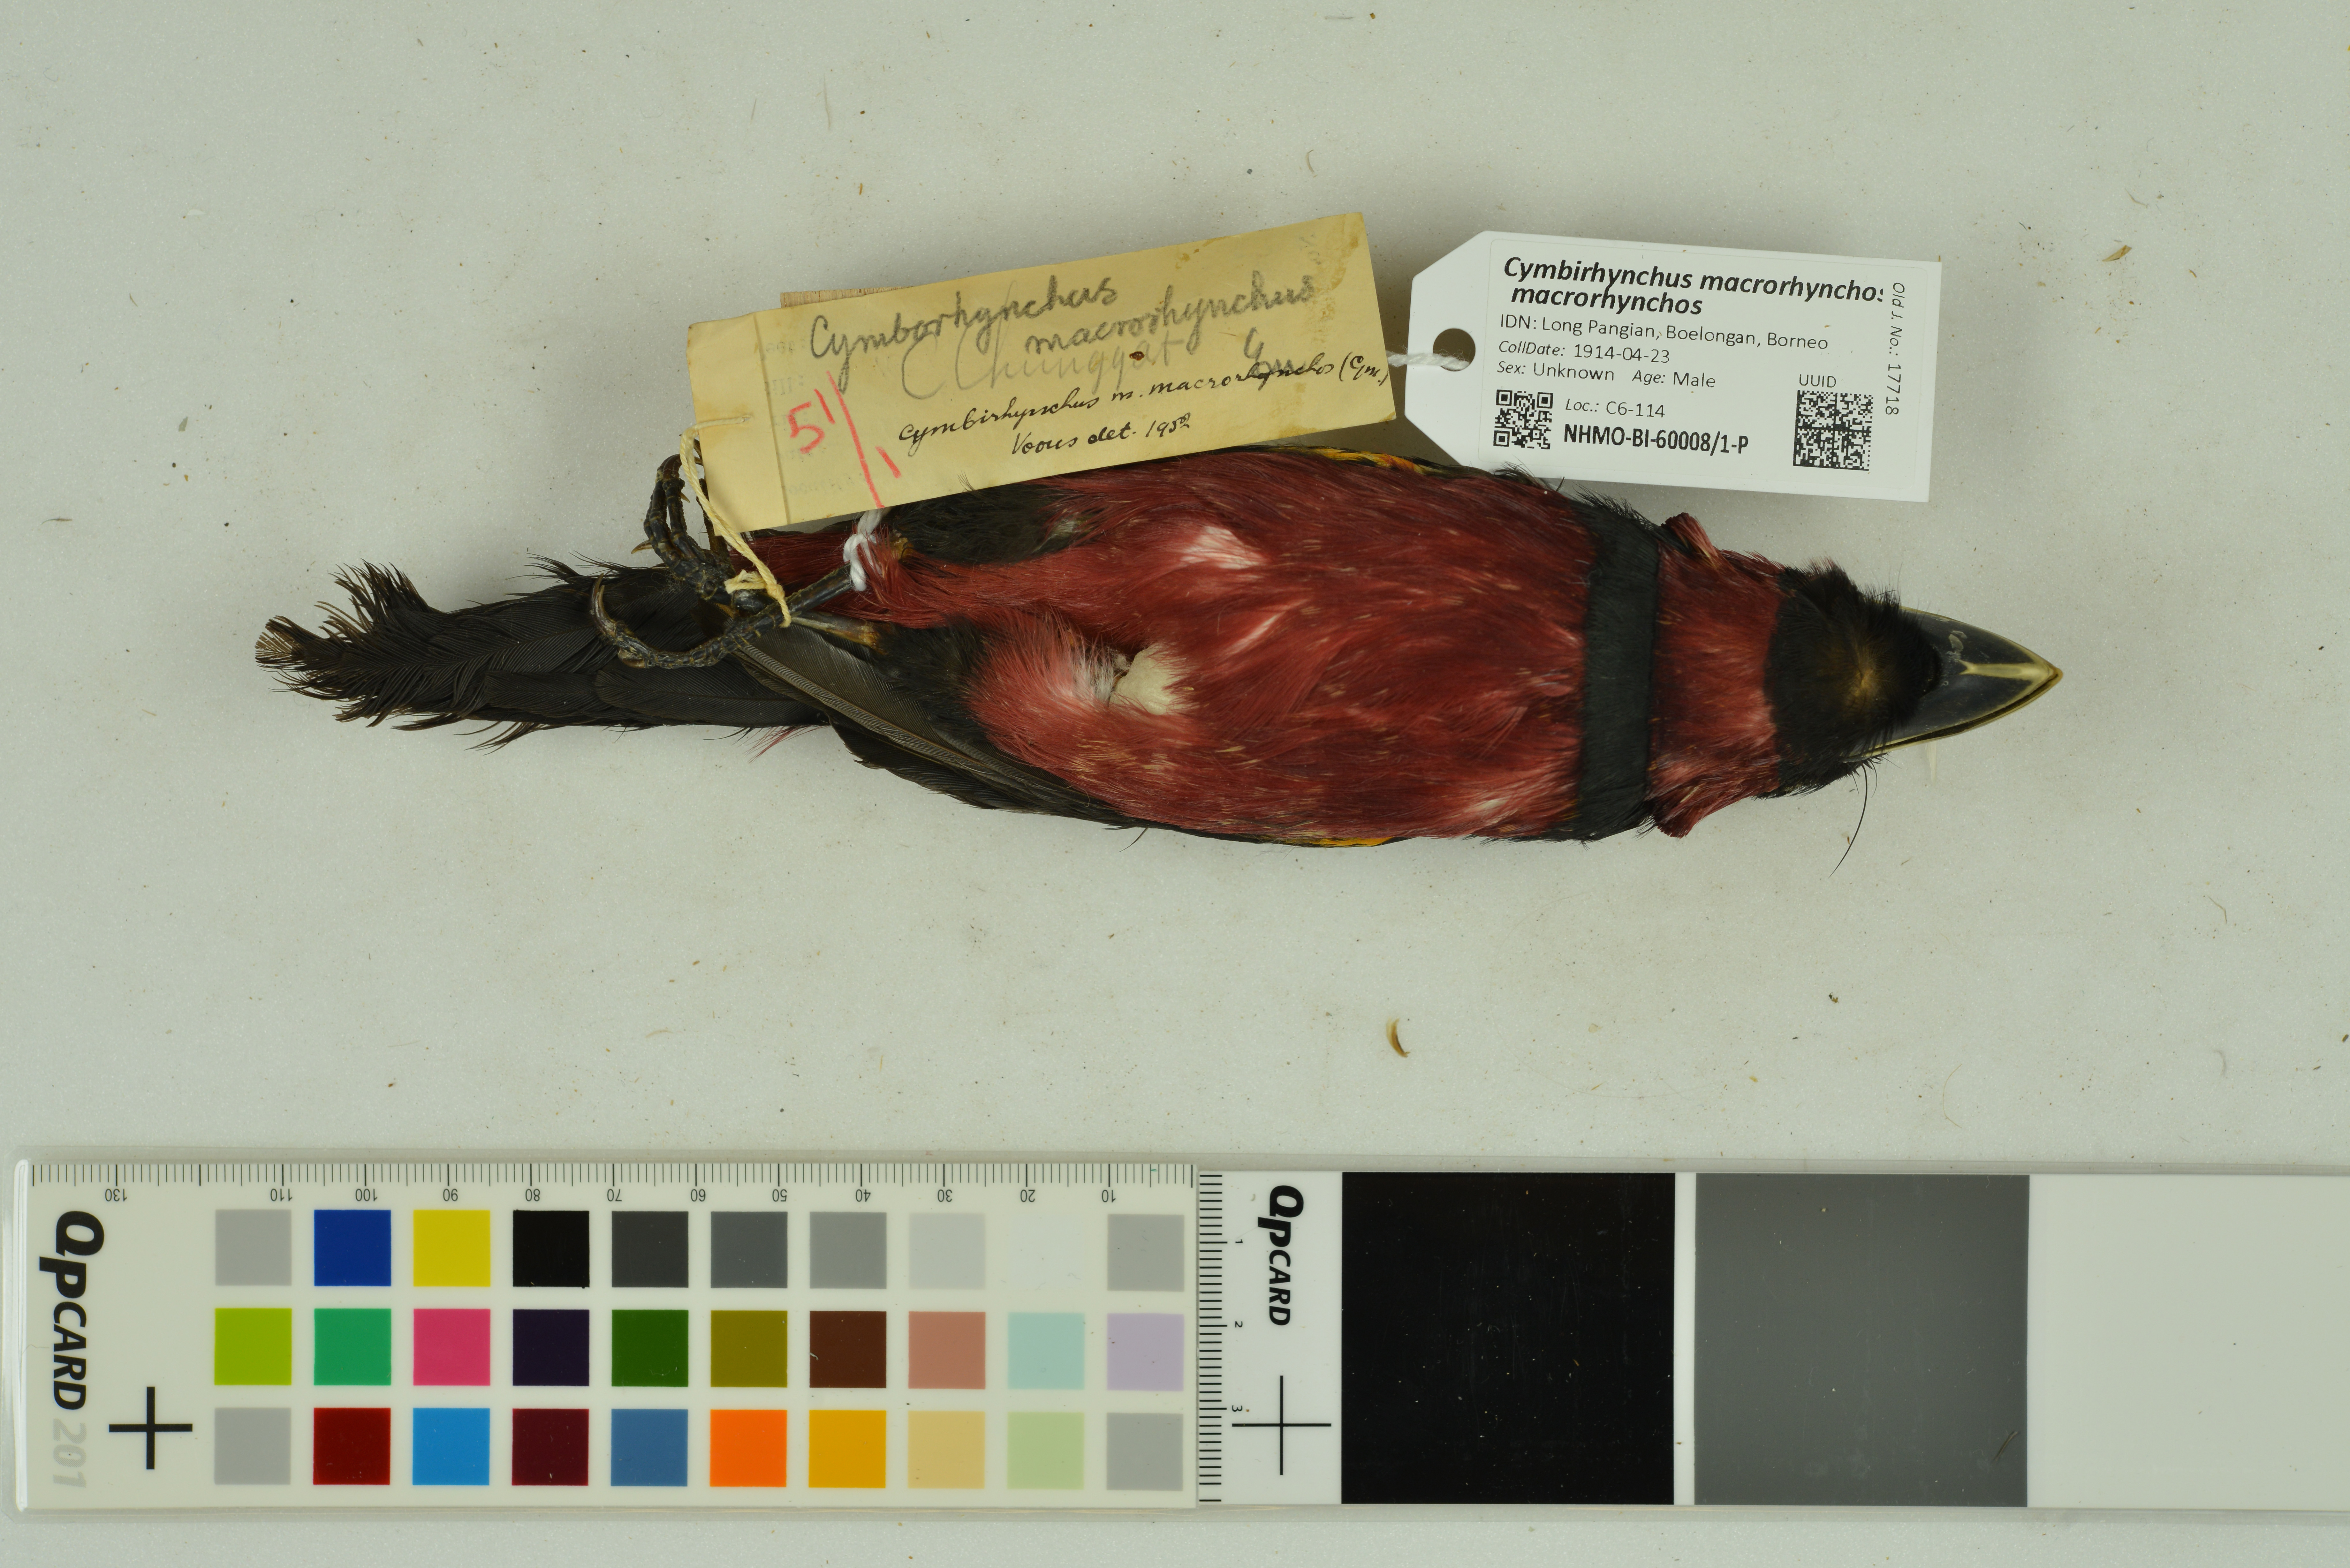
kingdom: Animalia
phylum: Chordata
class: Aves
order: Passeriformes
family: Eurylaimidae
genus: Cymbirhynchus
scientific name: Cymbirhynchus macrorhynchos
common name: Black-and-red broadbill
